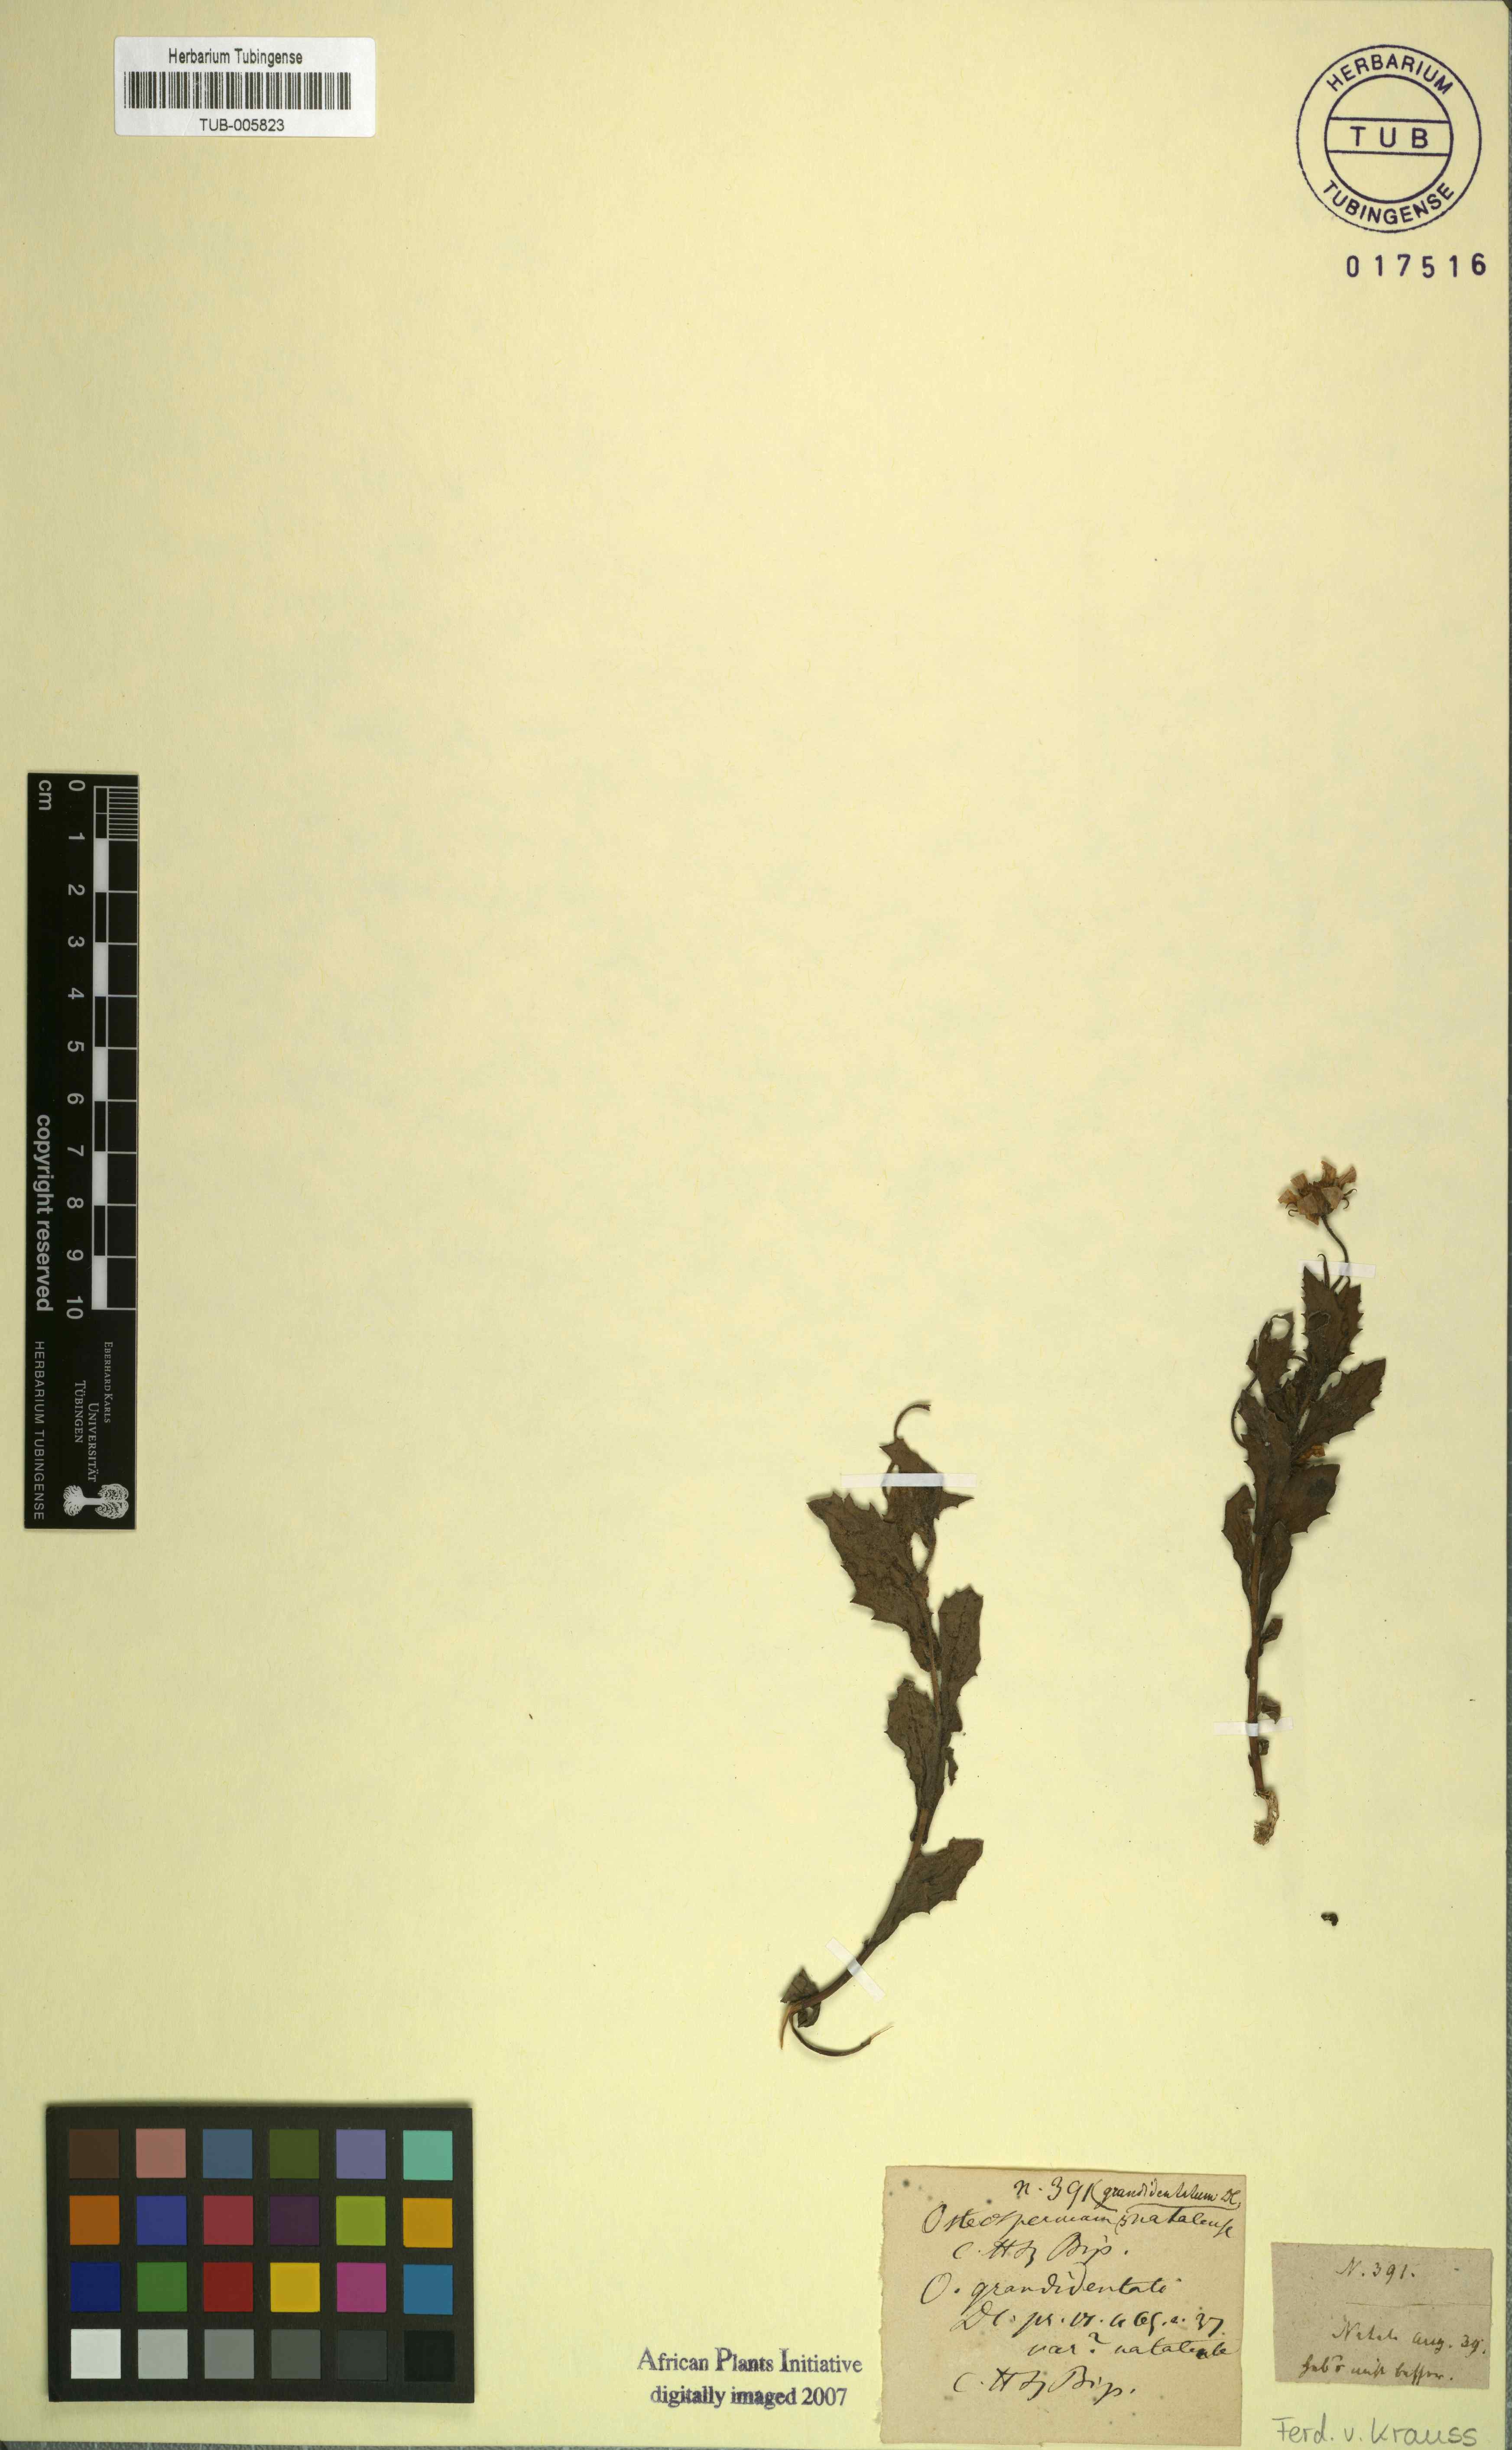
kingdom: Plantae
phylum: Tracheophyta
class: Magnoliopsida
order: Asterales
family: Asteraceae
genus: Osteospermum
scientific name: Osteospermum grandidentatum
